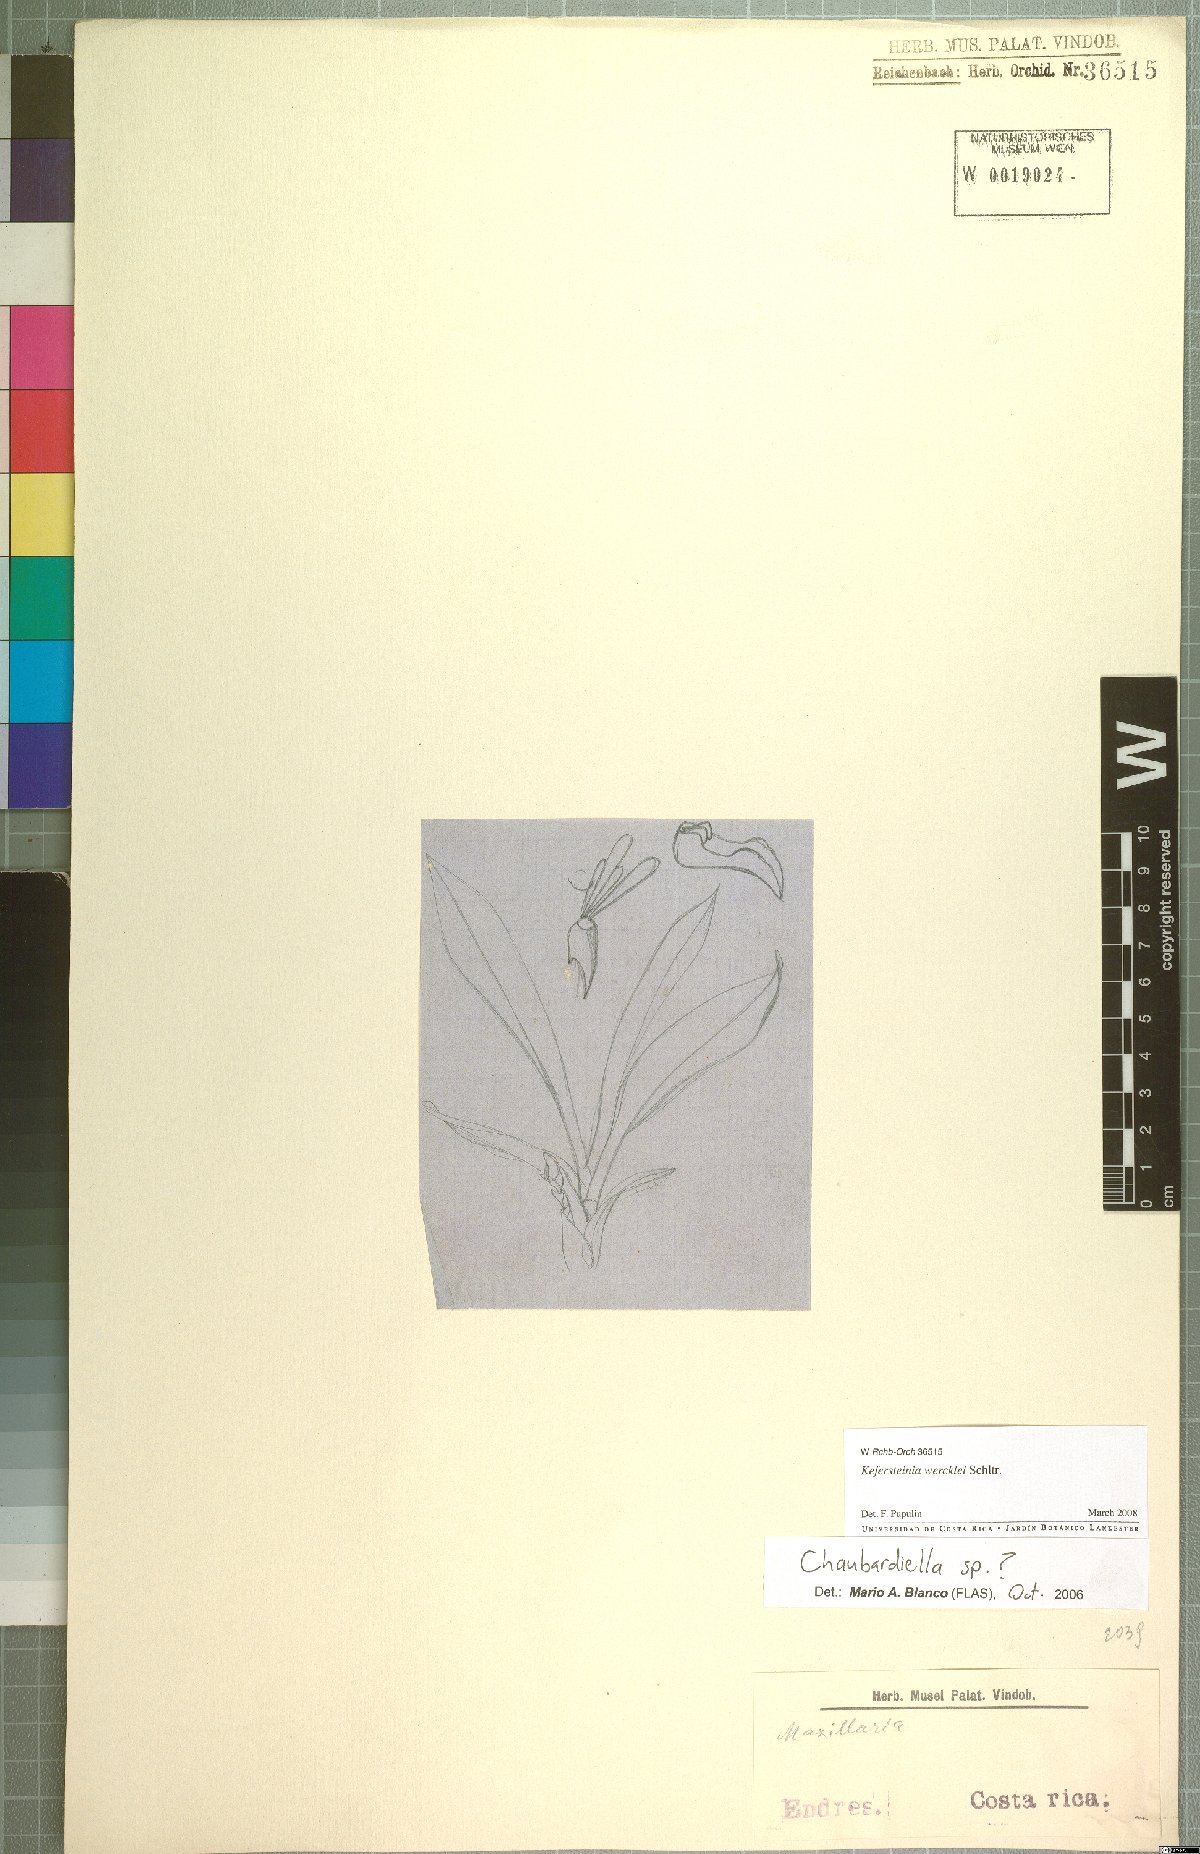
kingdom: Plantae
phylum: Tracheophyta
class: Liliopsida
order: Asparagales
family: Orchidaceae
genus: Kefersteinia
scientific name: Kefersteinia wercklei
